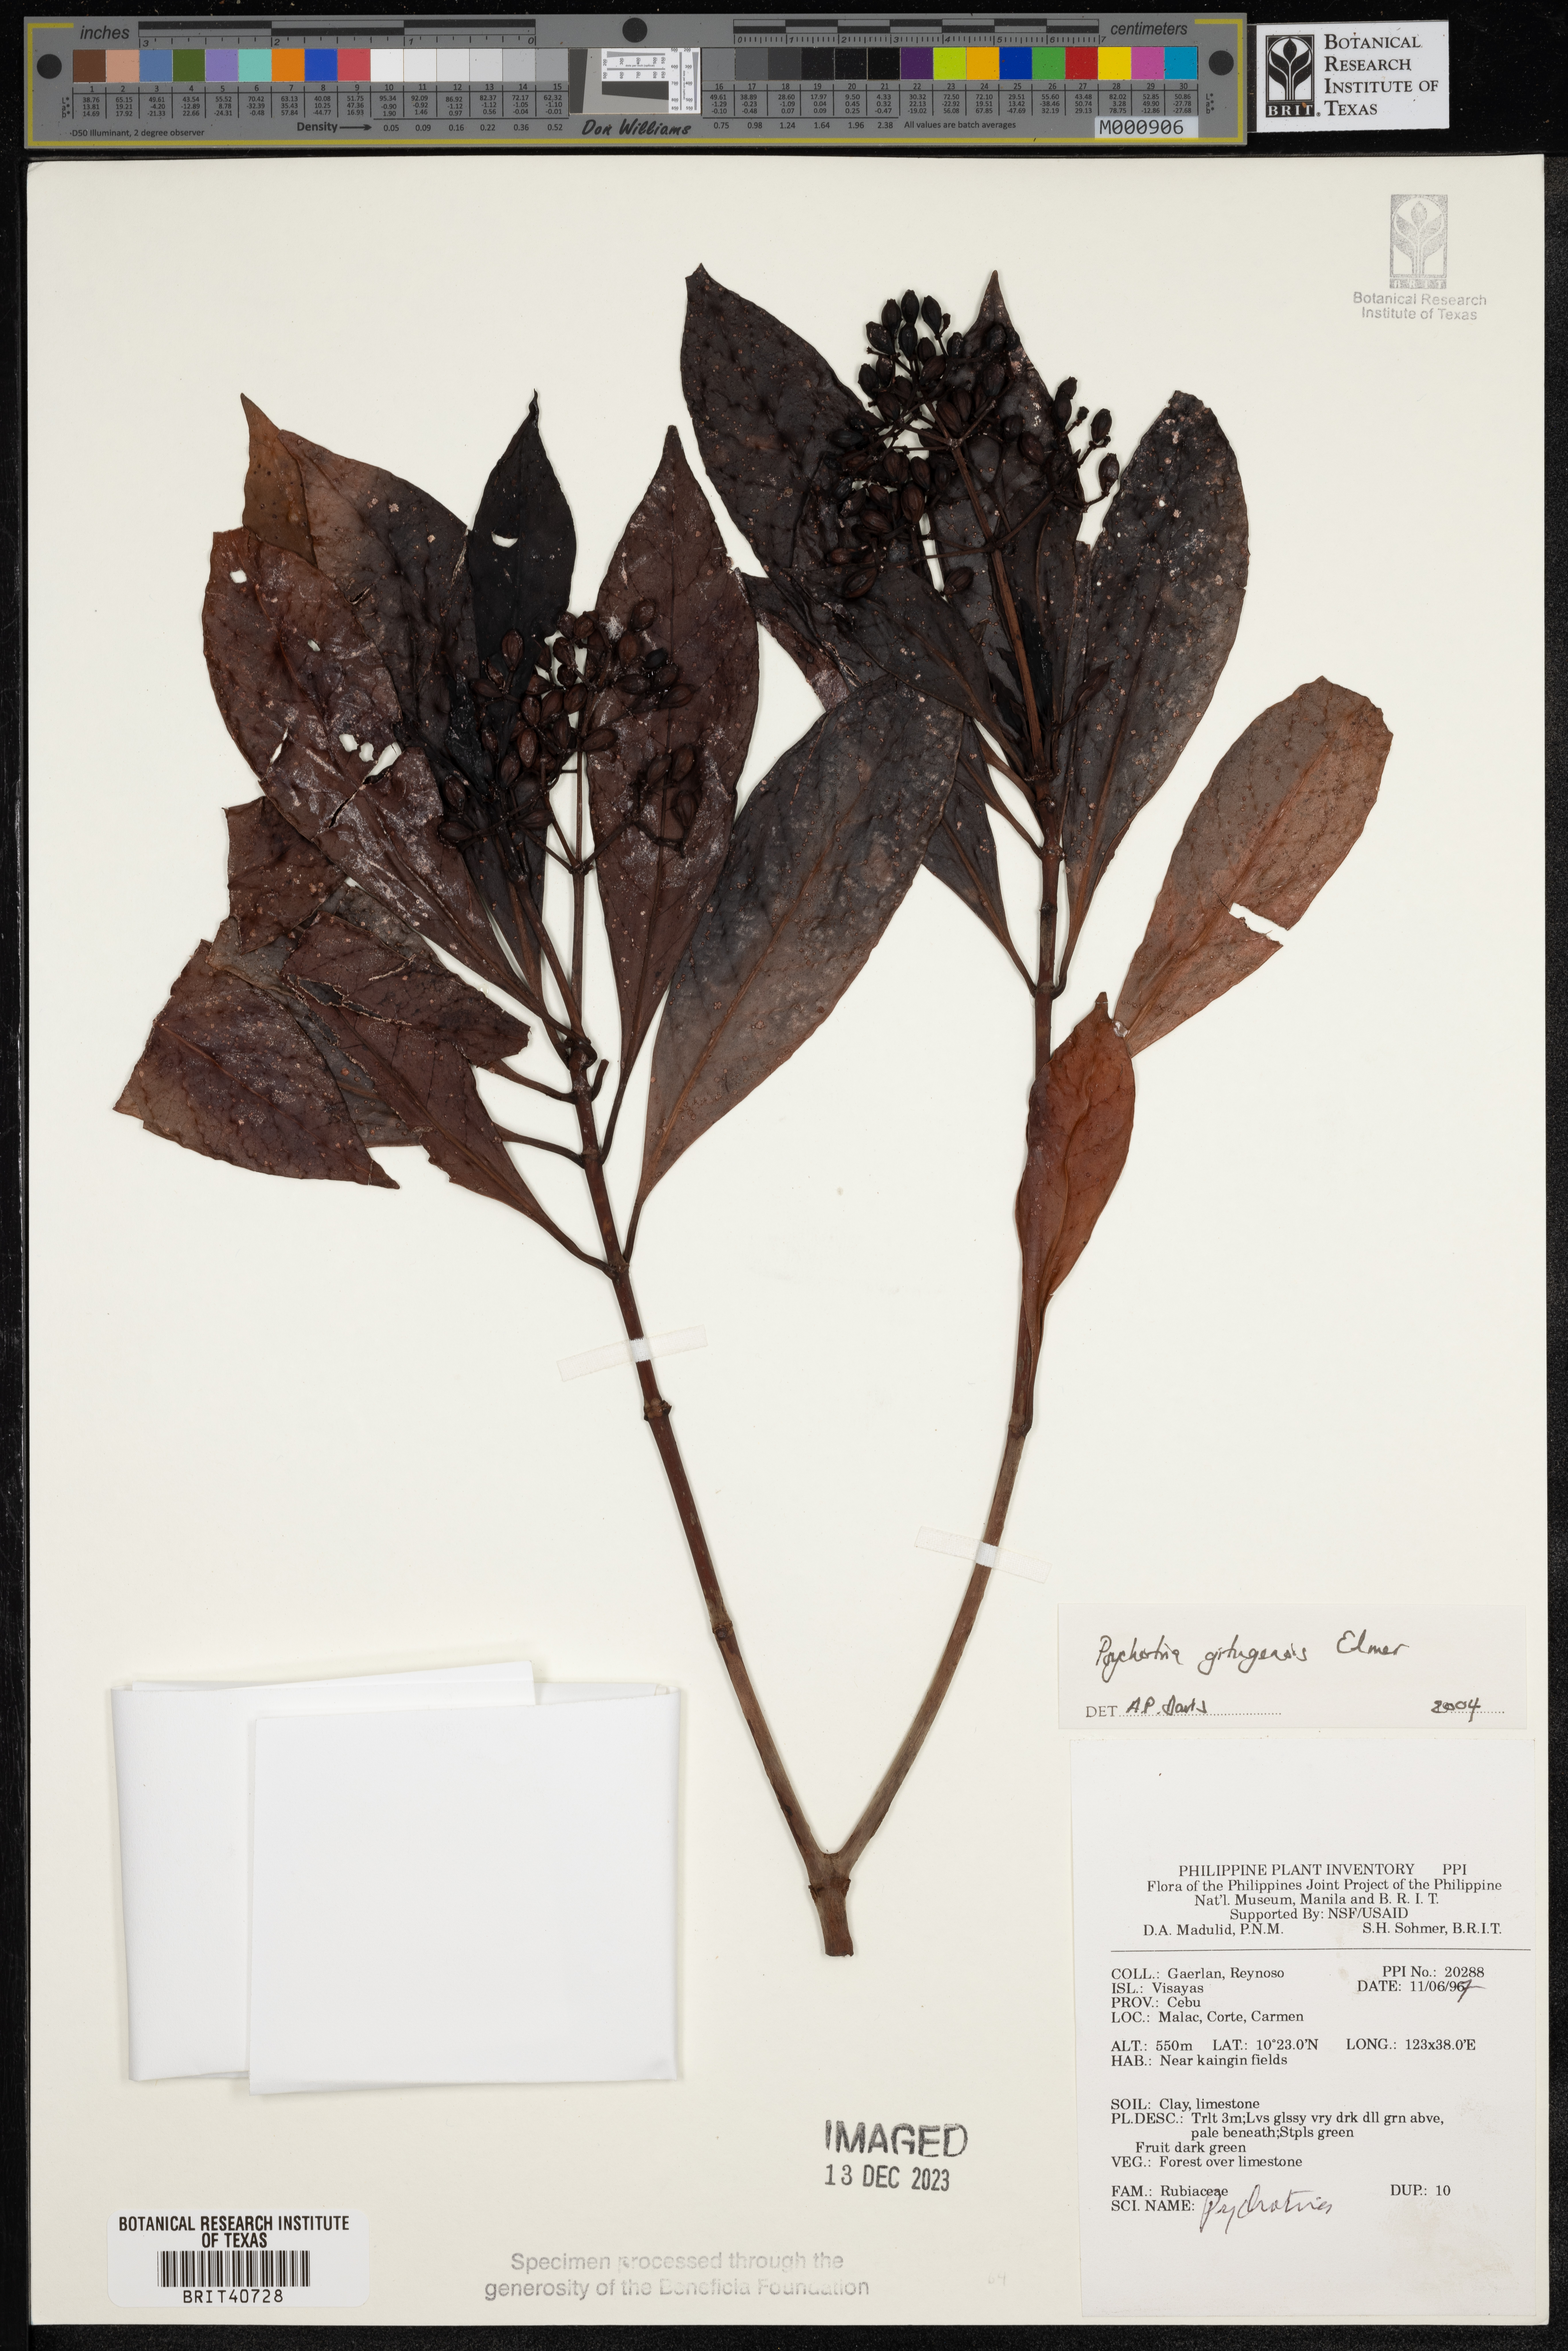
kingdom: Plantae
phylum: Tracheophyta
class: Magnoliopsida
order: Gentianales
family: Rubiaceae
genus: Psychotria
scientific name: Psychotria gitingensis
